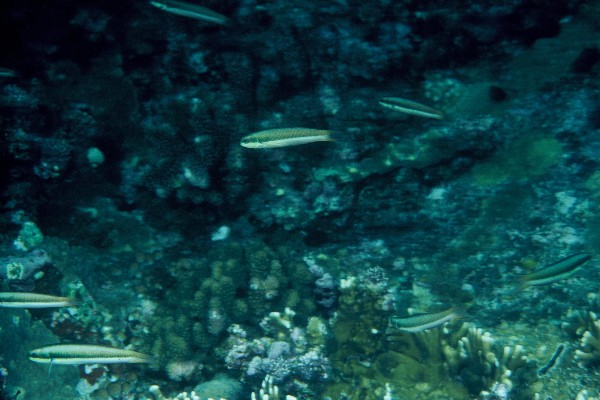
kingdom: Animalia
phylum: Chordata
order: Perciformes
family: Labridae
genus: Thalassoma
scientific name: Thalassoma amblycephalum
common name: Bluehead wrasse
